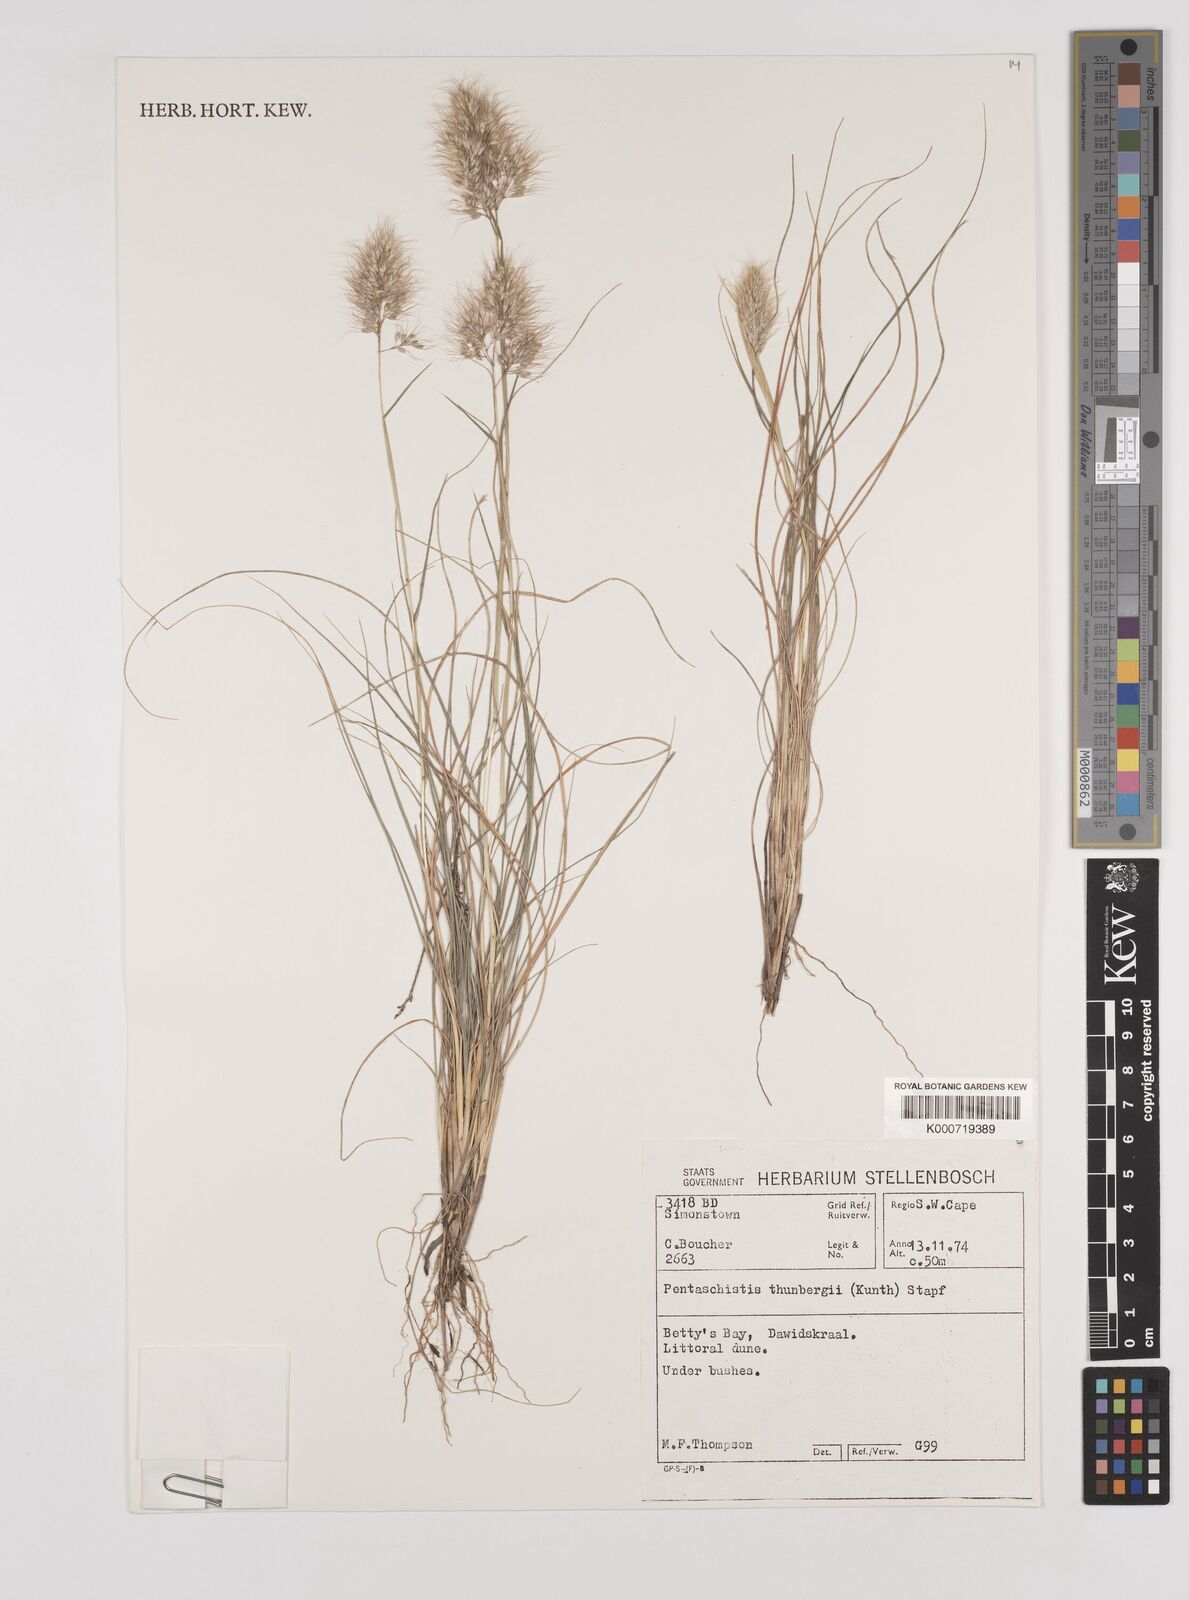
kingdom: Plantae
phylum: Tracheophyta
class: Liliopsida
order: Poales
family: Poaceae
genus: Pentameris
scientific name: Pentameris triseta
